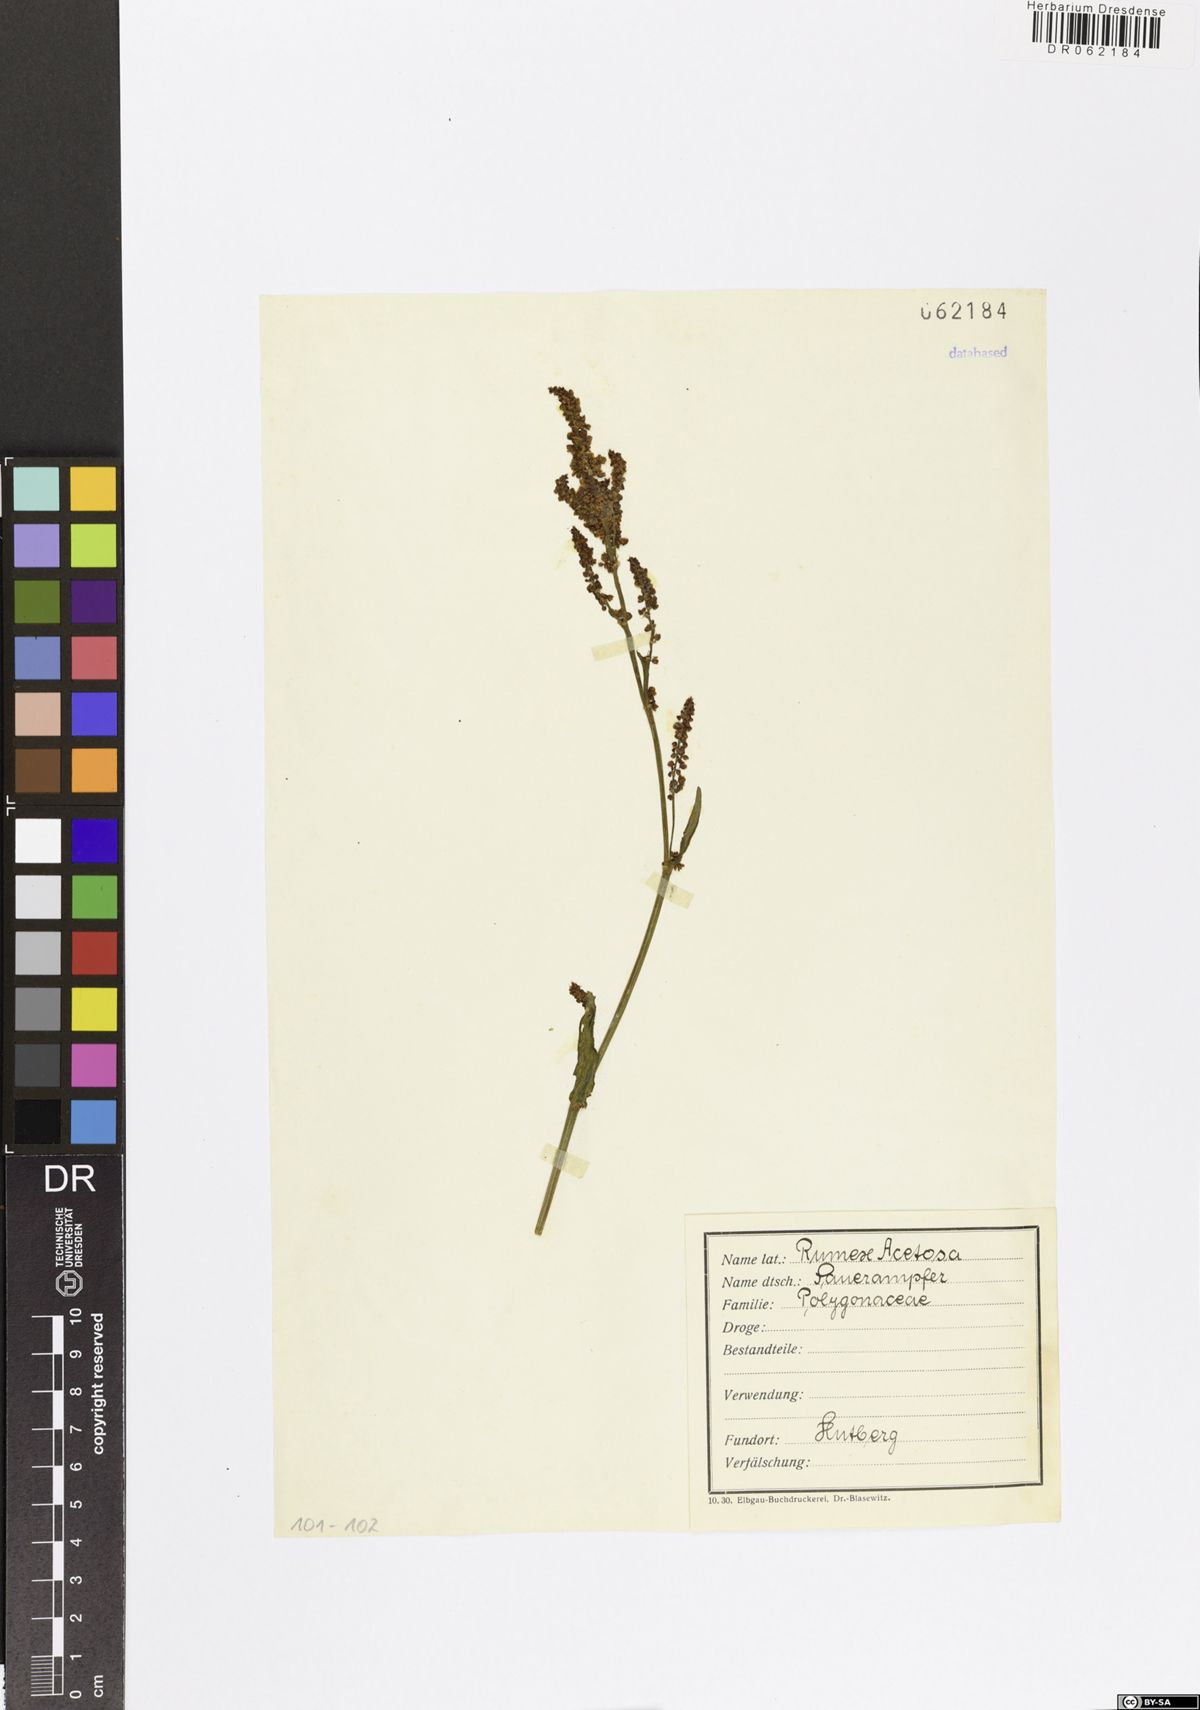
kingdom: Plantae
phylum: Tracheophyta
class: Magnoliopsida
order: Caryophyllales
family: Polygonaceae
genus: Rumex
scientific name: Rumex acetosa
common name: Garden sorrel
